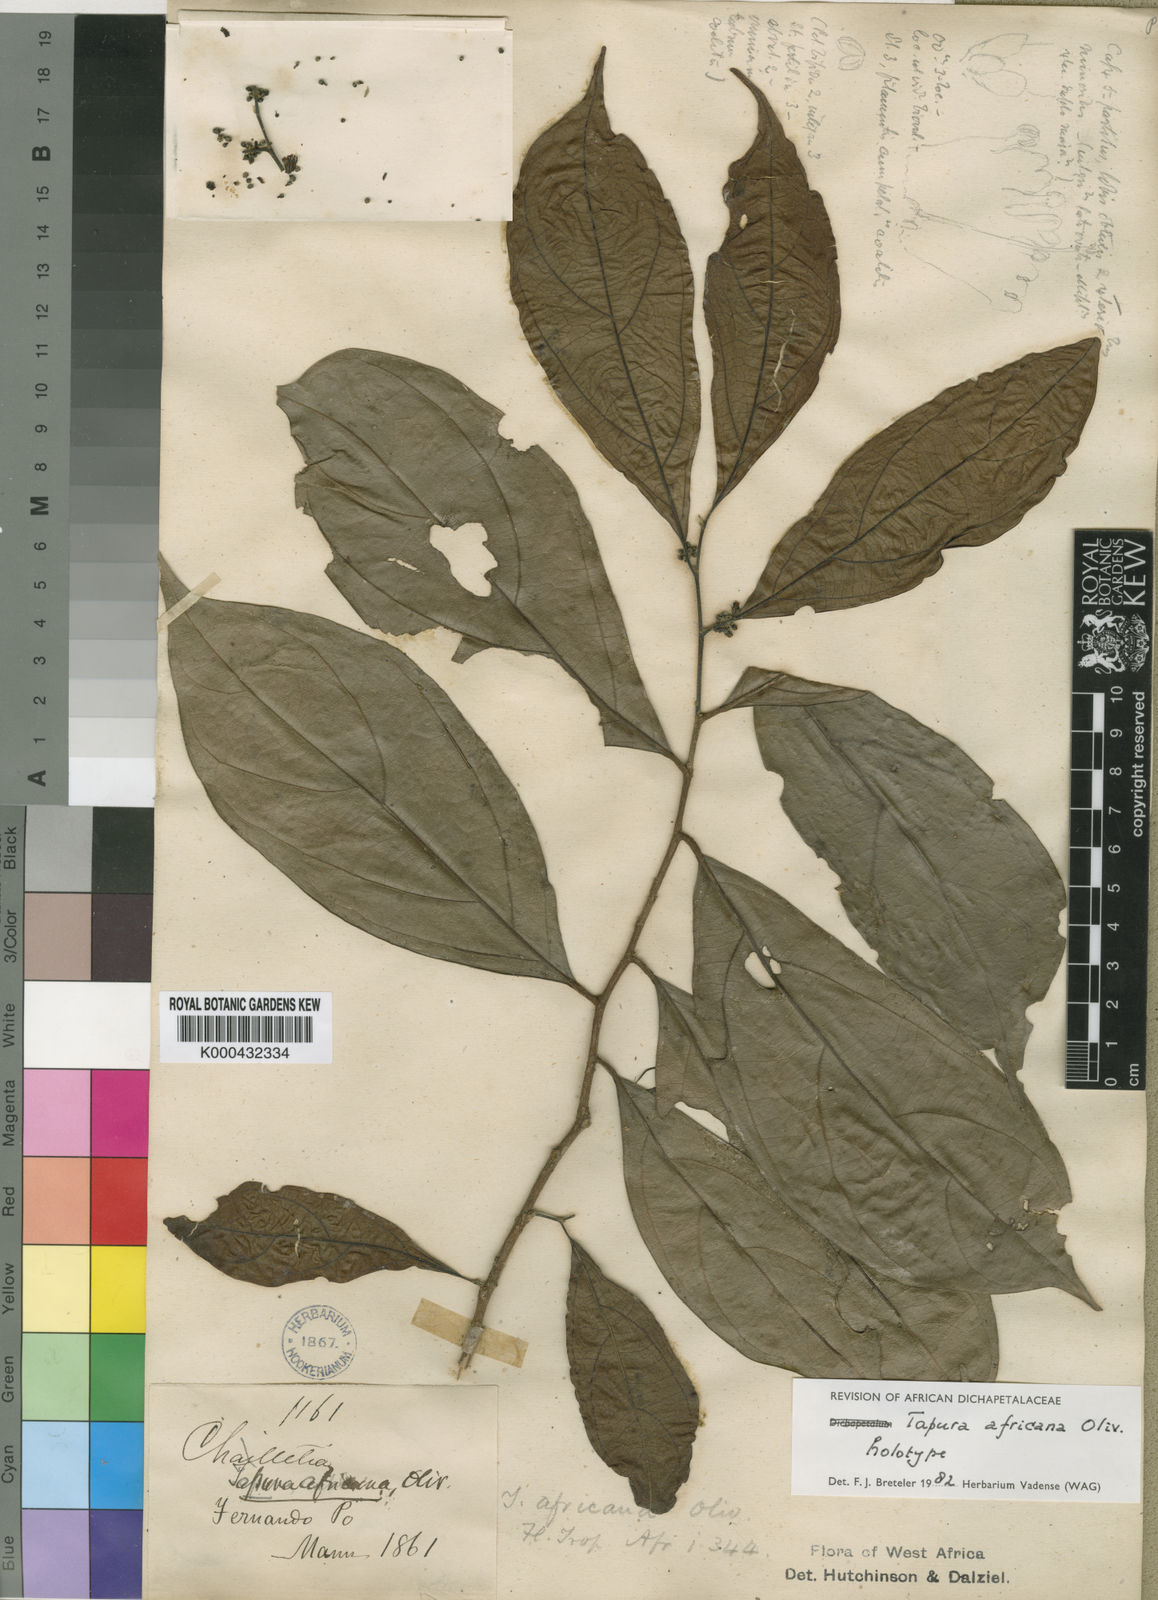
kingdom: Plantae
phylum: Tracheophyta
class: Magnoliopsida
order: Malpighiales
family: Dichapetalaceae
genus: Tapura
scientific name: Tapura africana
